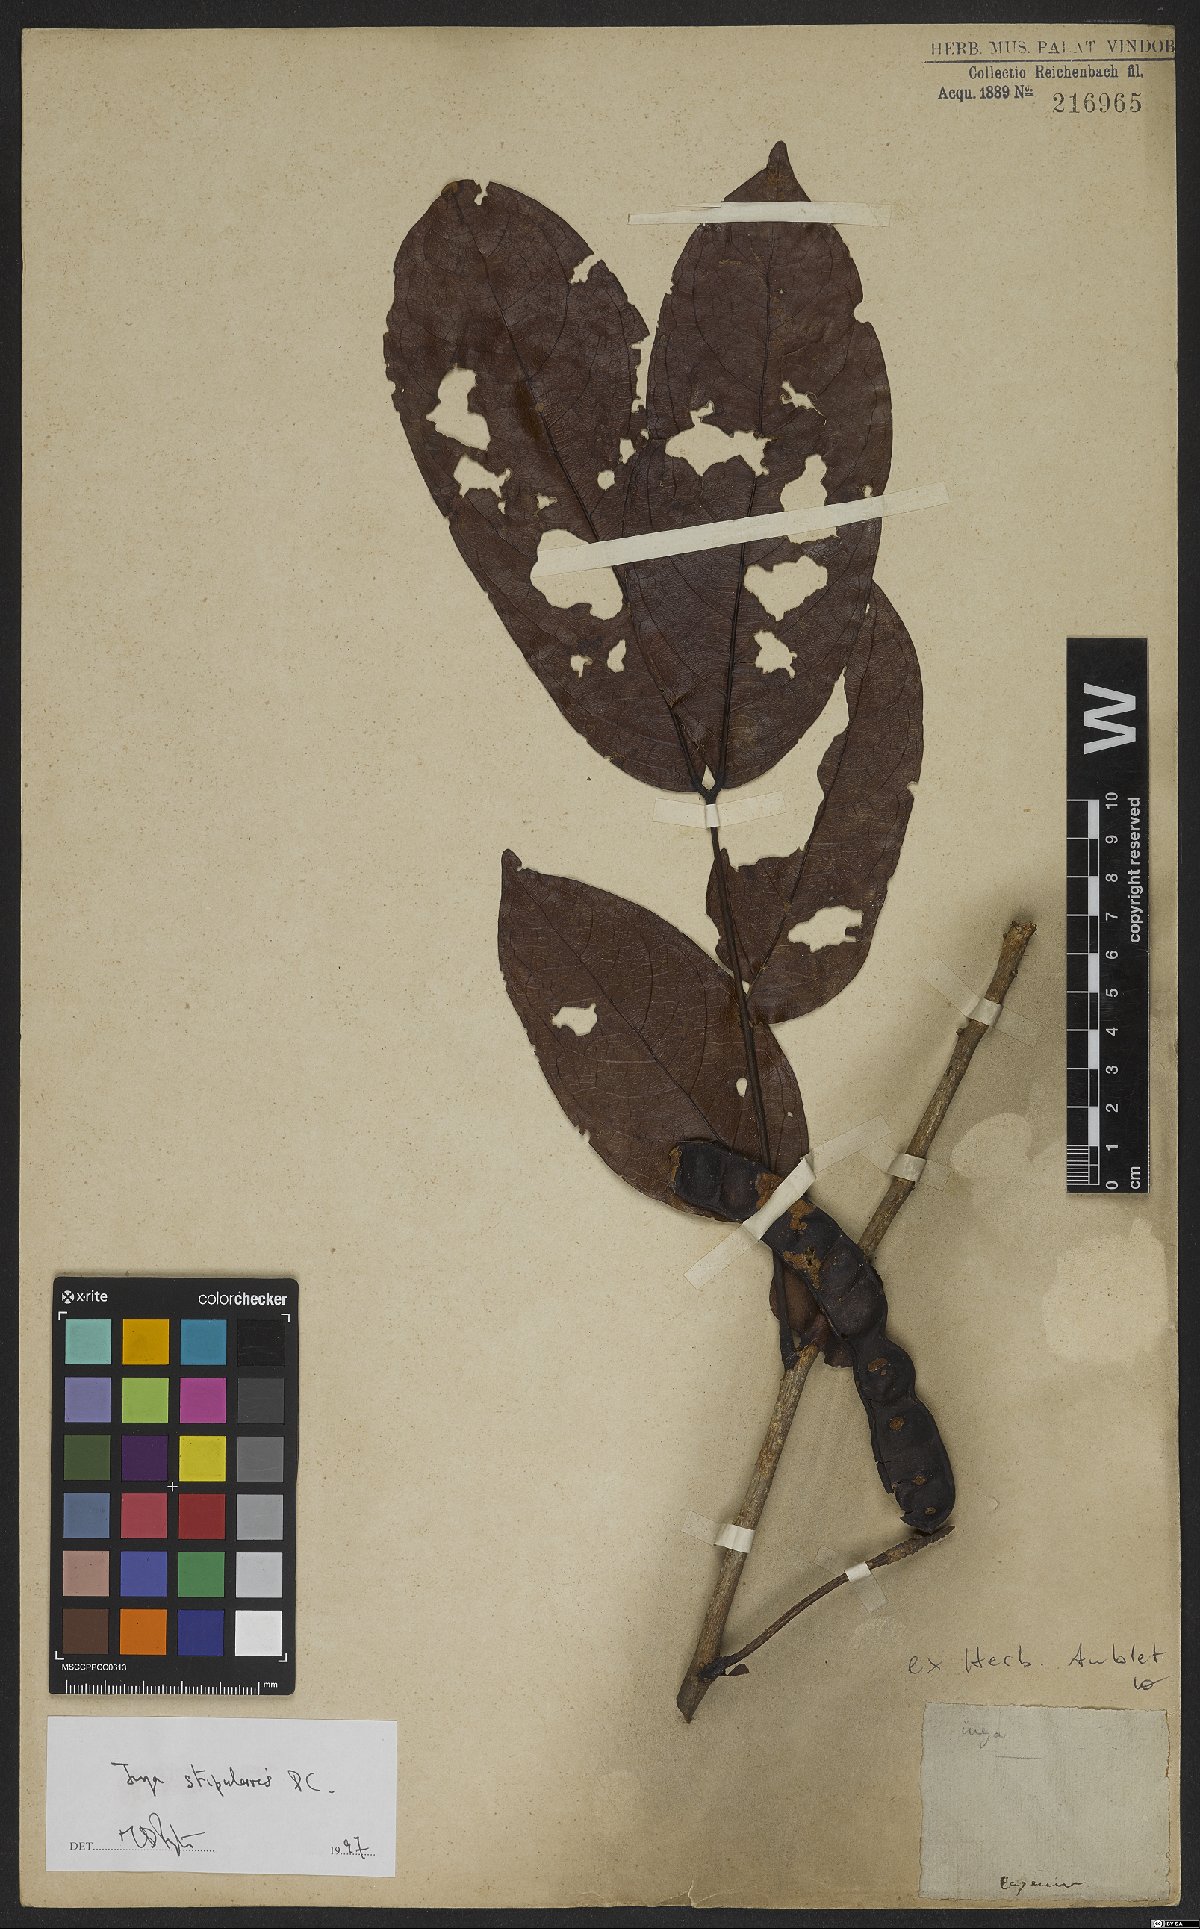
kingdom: Plantae
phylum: Tracheophyta
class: Magnoliopsida
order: Fabales
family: Fabaceae
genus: Inga
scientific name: Inga stipularis
